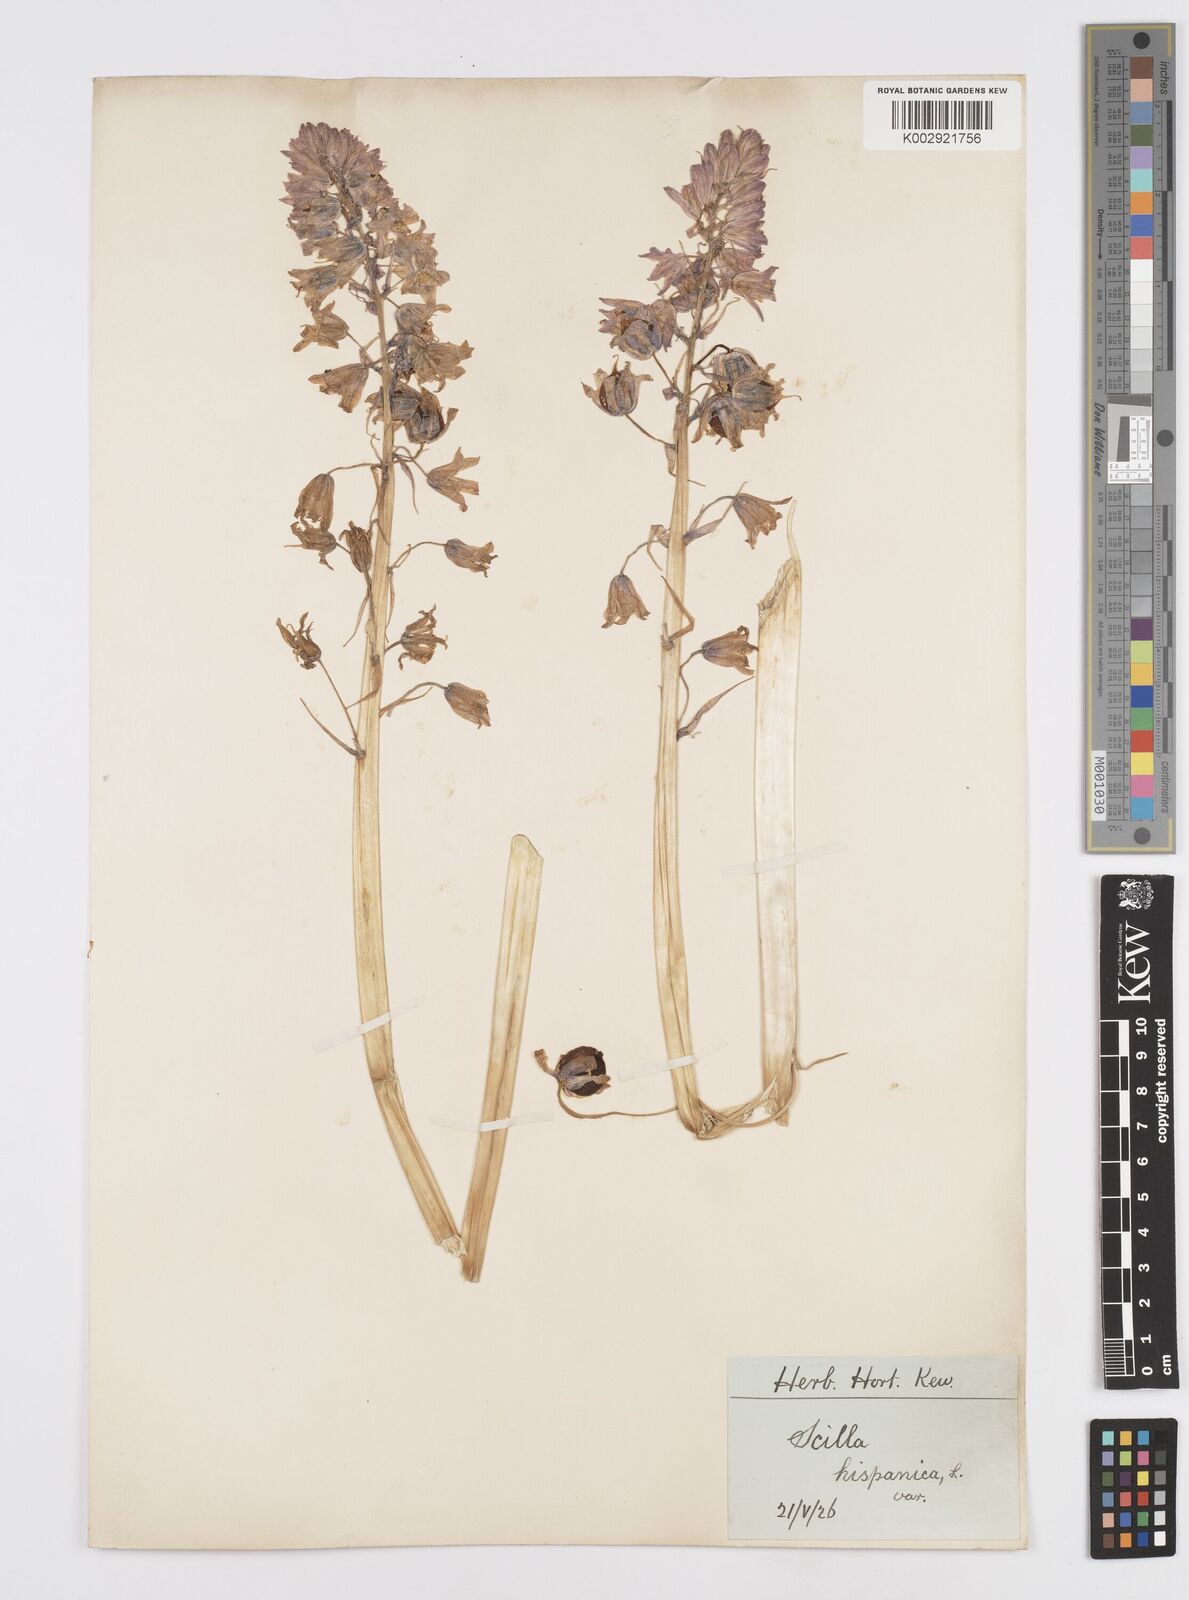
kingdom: Plantae
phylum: Tracheophyta
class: Liliopsida
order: Asparagales
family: Asparagaceae
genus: Hyacinthoides
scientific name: Hyacinthoides hispanica
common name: Spanish bluebell
